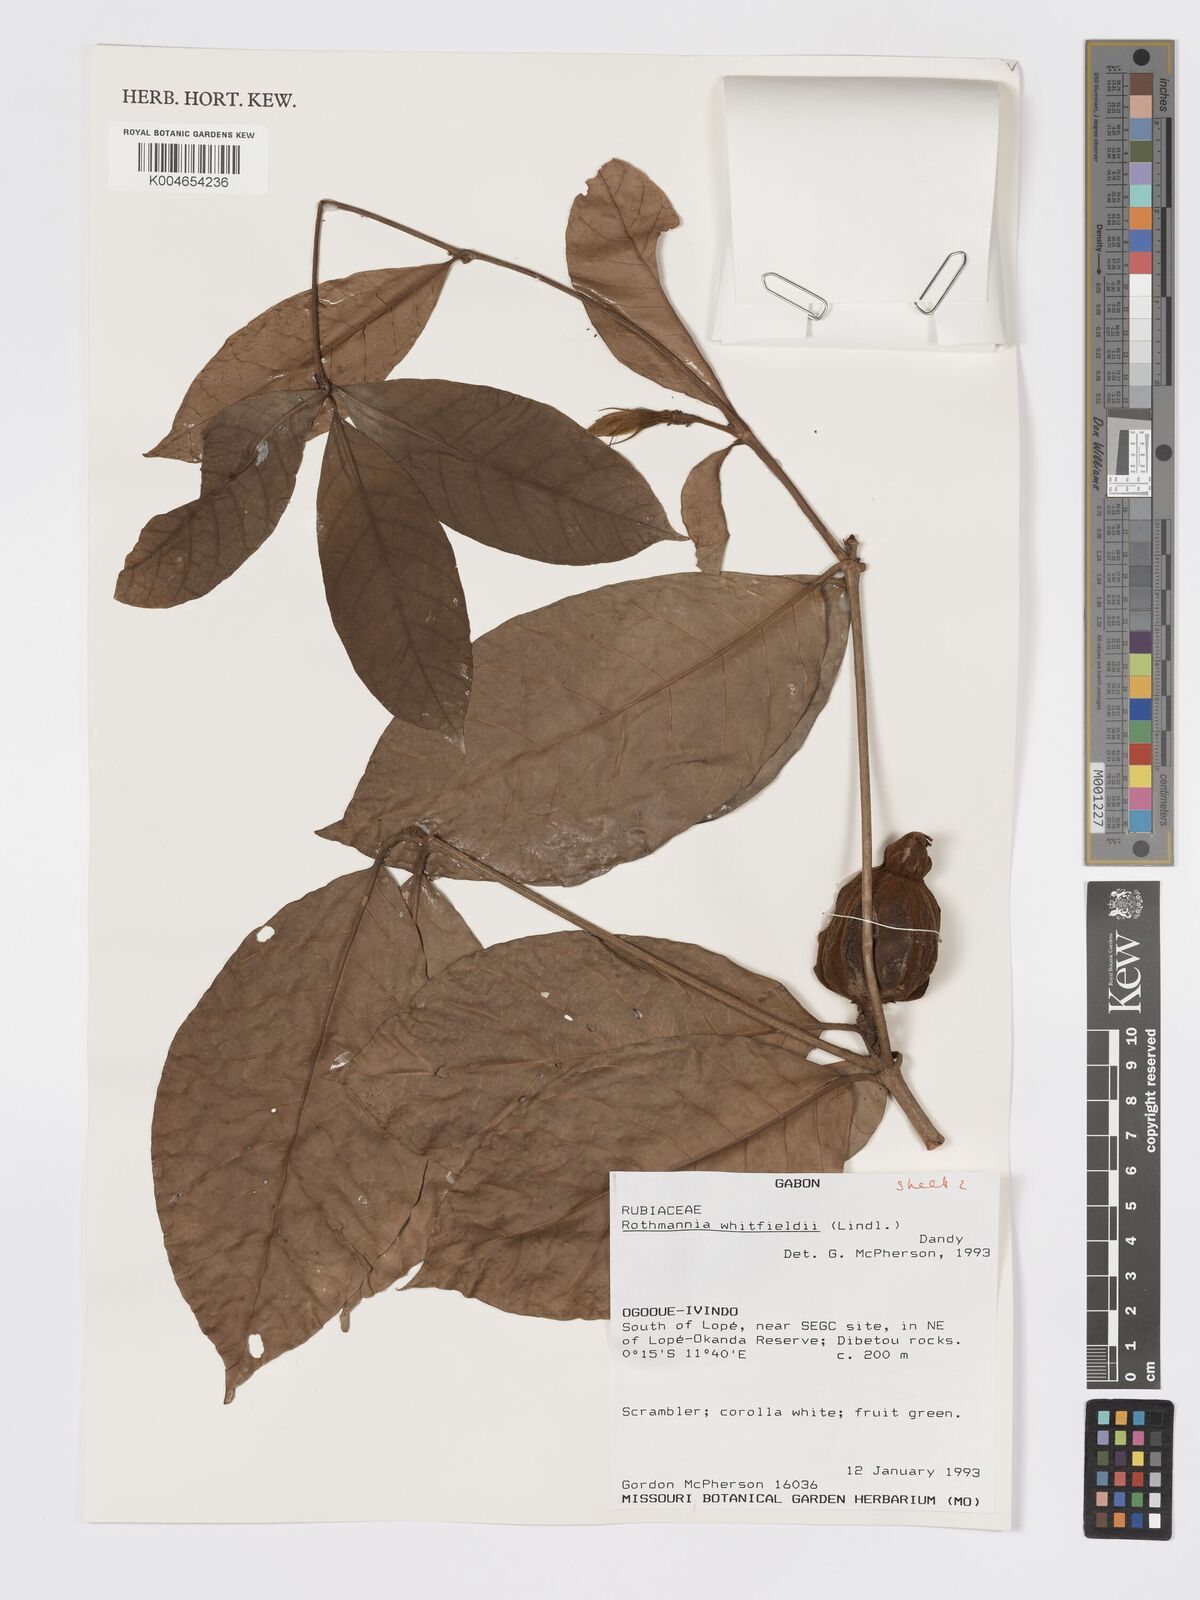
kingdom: Plantae
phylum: Tracheophyta
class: Magnoliopsida
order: Gentianales
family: Rubiaceae
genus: Rothmannia
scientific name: Rothmannia whitfieldii
